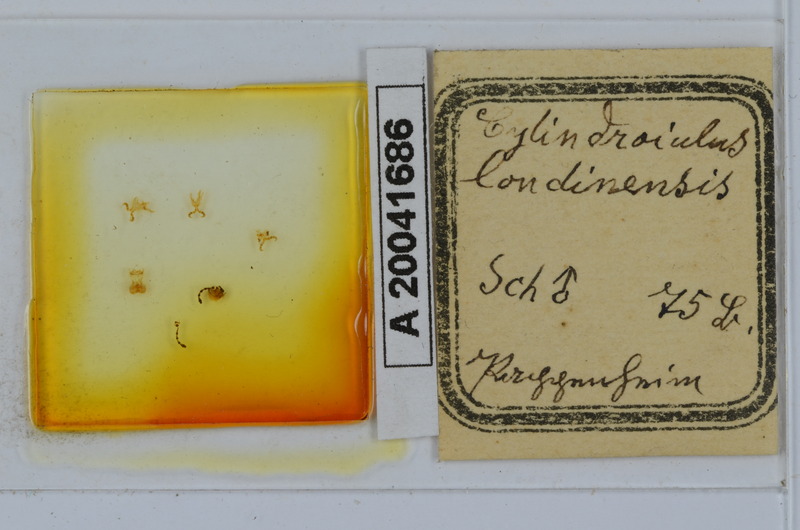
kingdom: Animalia
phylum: Arthropoda
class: Diplopoda
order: Julida
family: Julidae
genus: Cylindroiulus
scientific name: Cylindroiulus londinensis
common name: Black millipede
